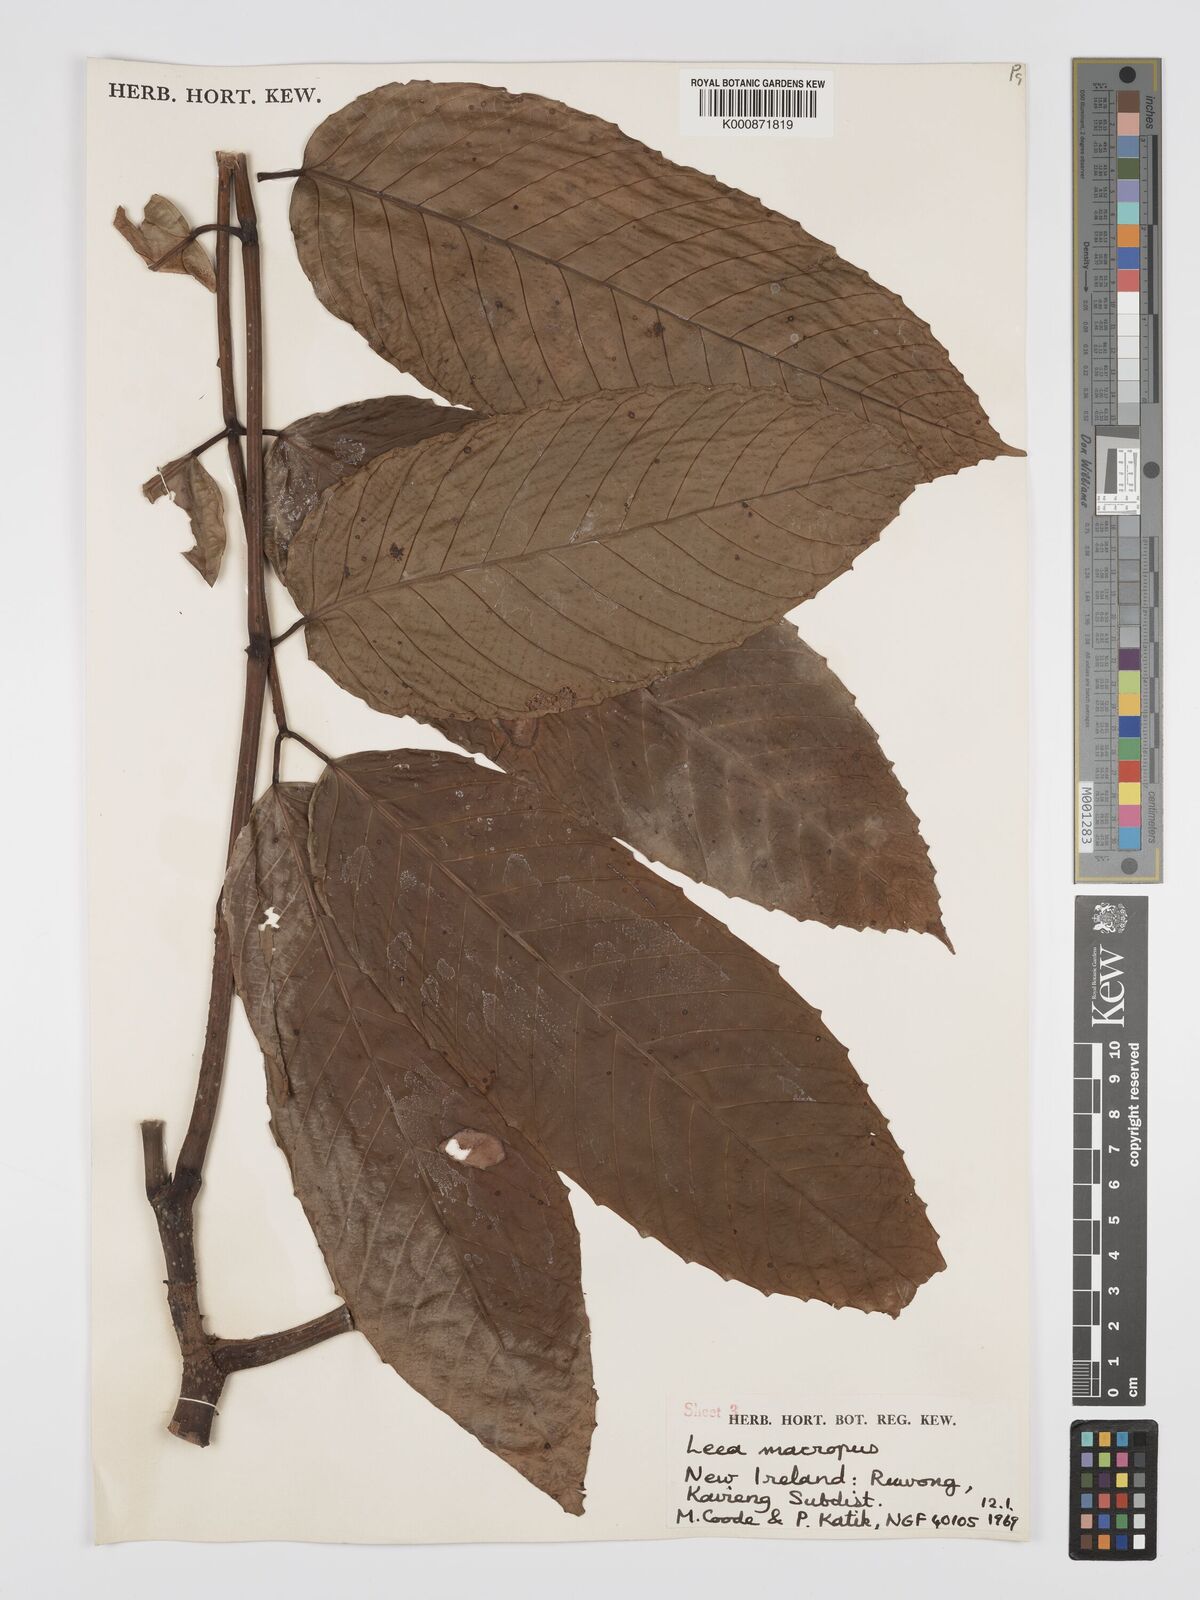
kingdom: Plantae
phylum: Tracheophyta
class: Magnoliopsida
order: Vitales
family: Vitaceae
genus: Leea
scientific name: Leea macropus
